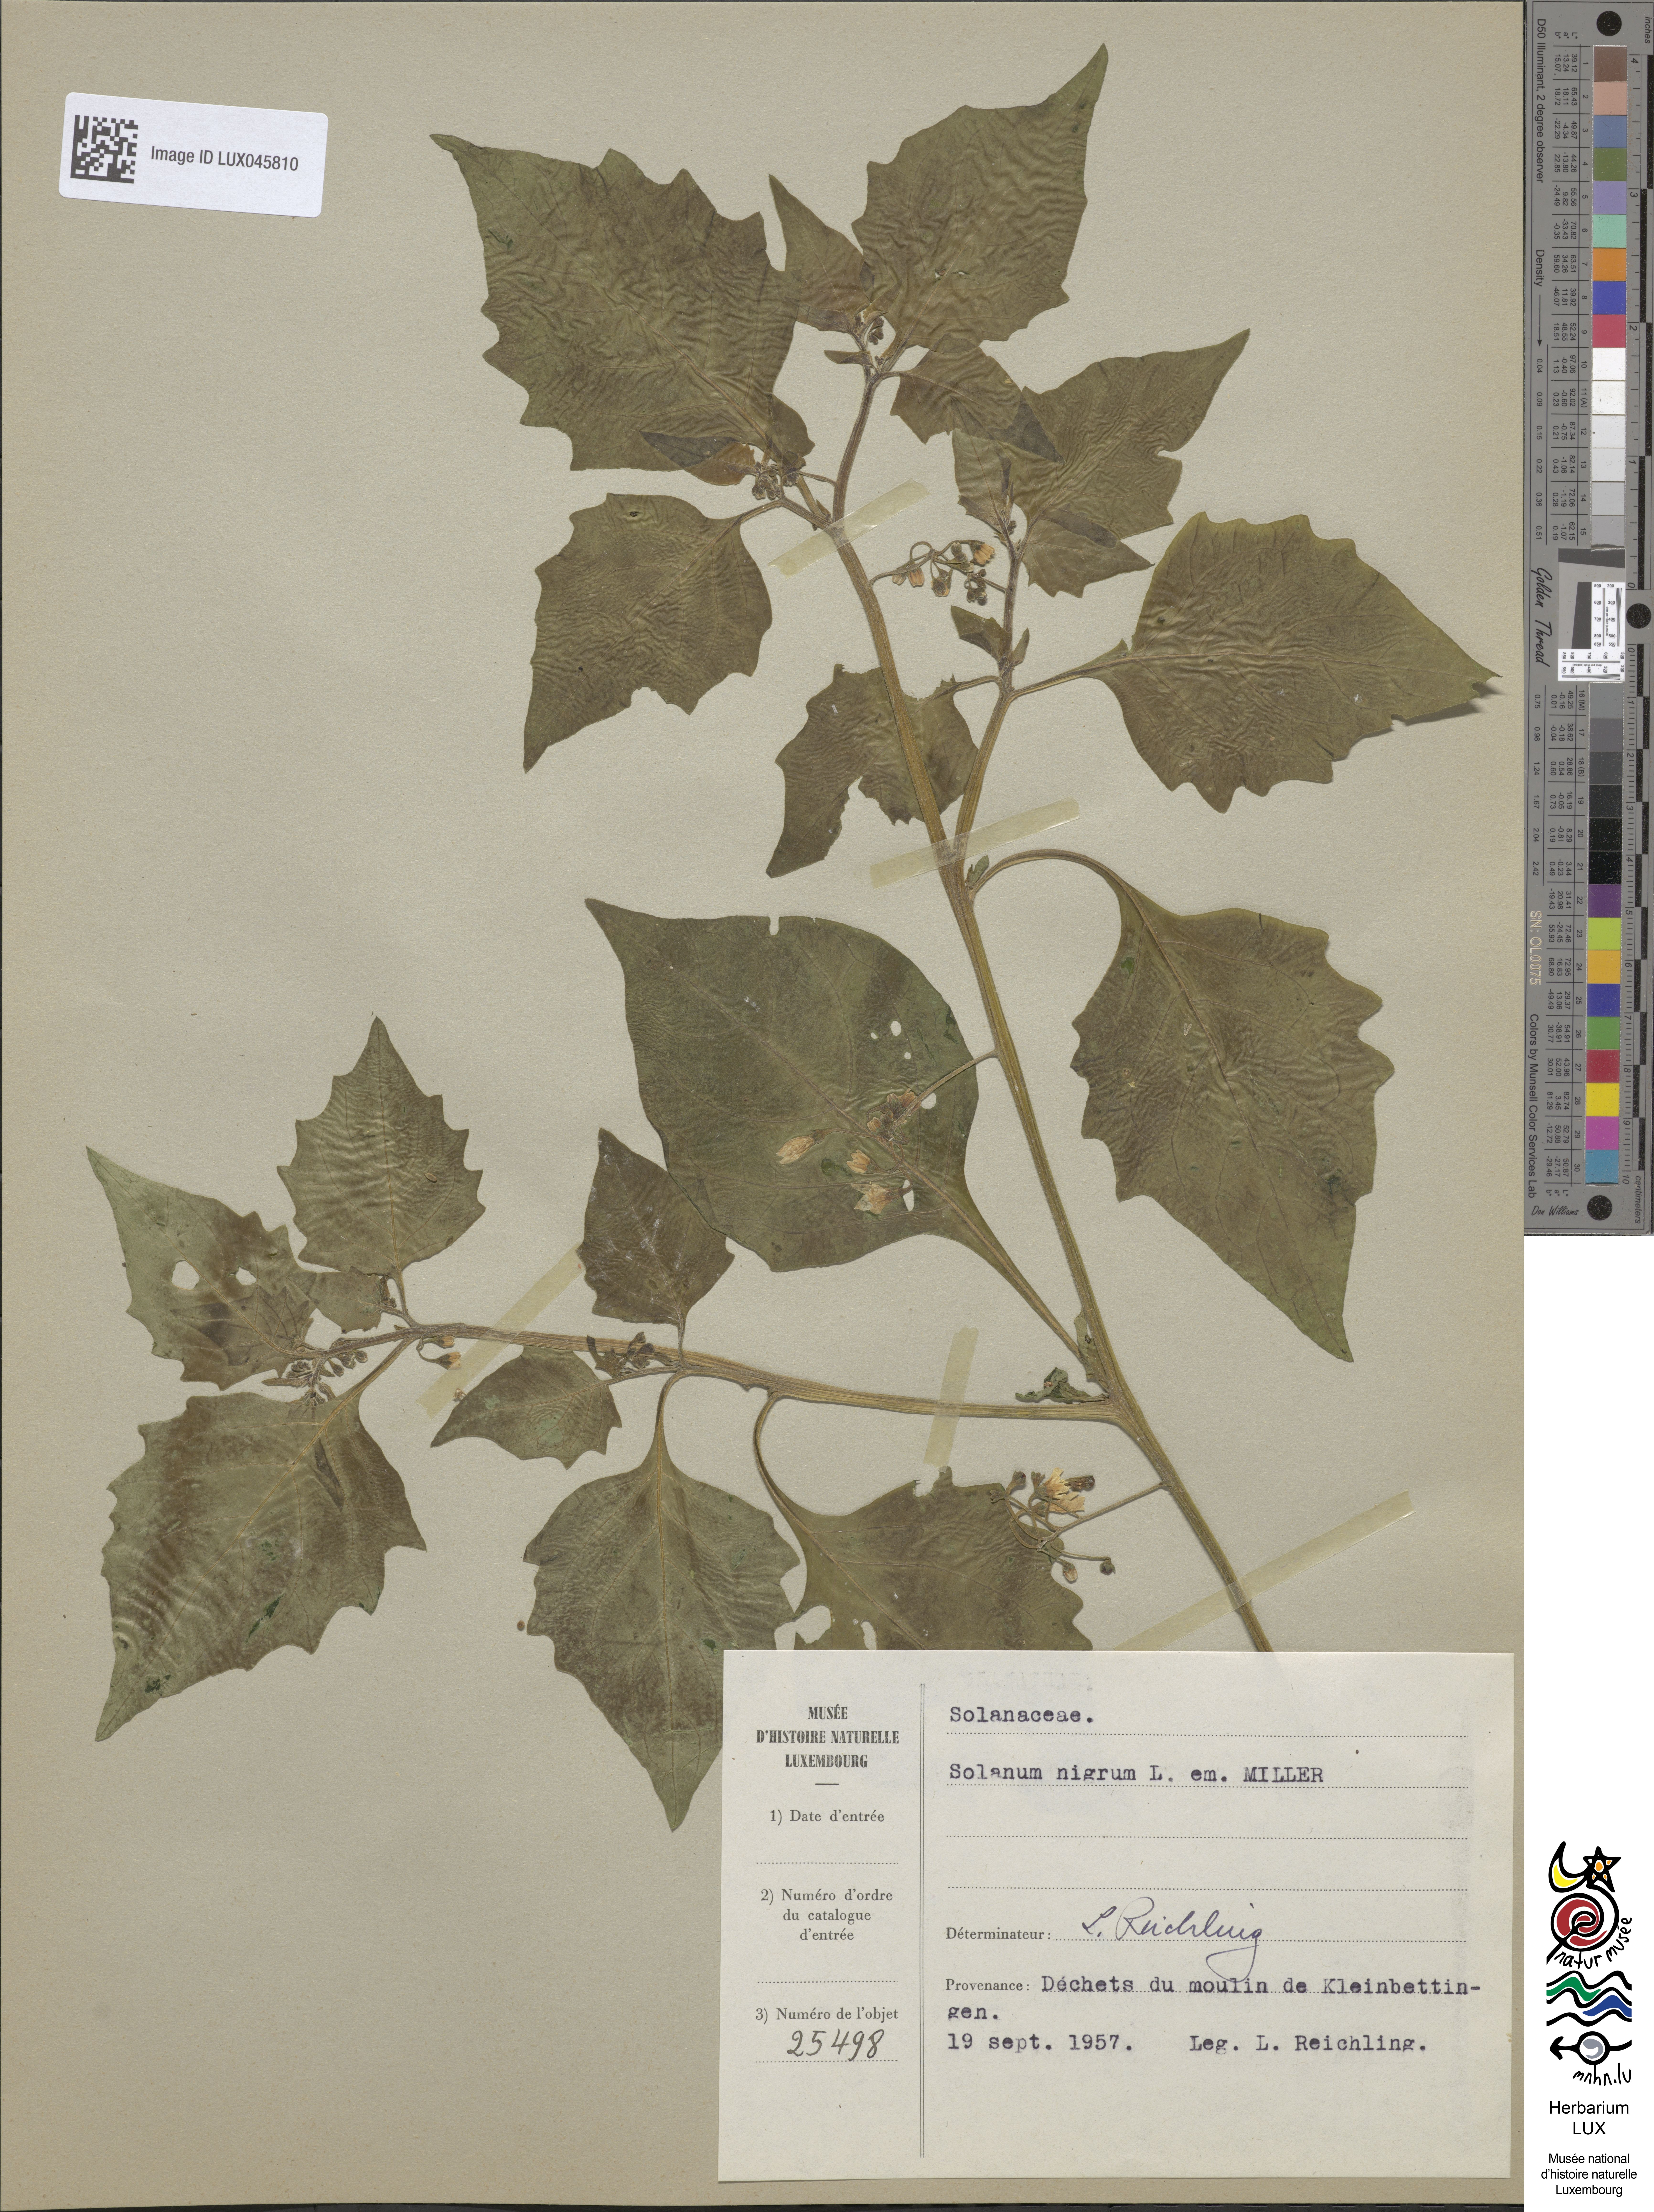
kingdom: Plantae
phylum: Tracheophyta
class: Magnoliopsida
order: Solanales
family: Solanaceae
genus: Solanum
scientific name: Solanum nigrum
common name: Black nightshade
